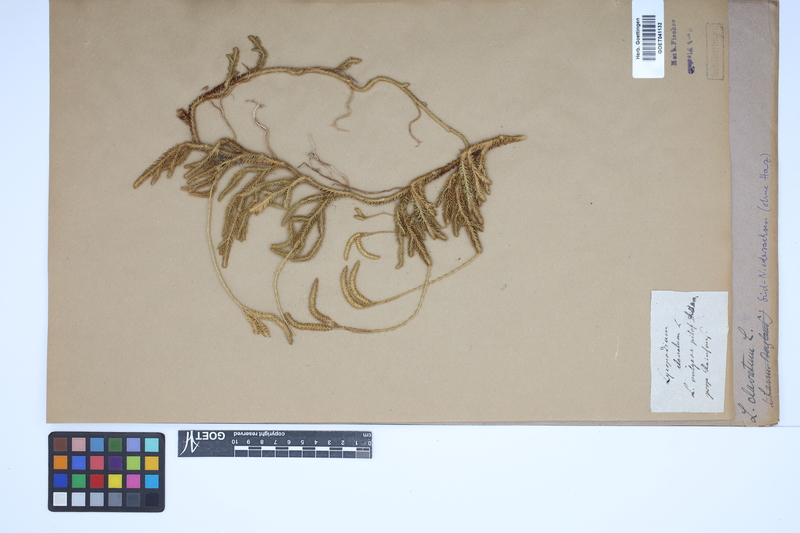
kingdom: Plantae
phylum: Tracheophyta
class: Lycopodiopsida
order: Lycopodiales
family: Lycopodiaceae
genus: Lycopodium
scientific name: Lycopodium clavatum
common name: Stag's-horn clubmoss
